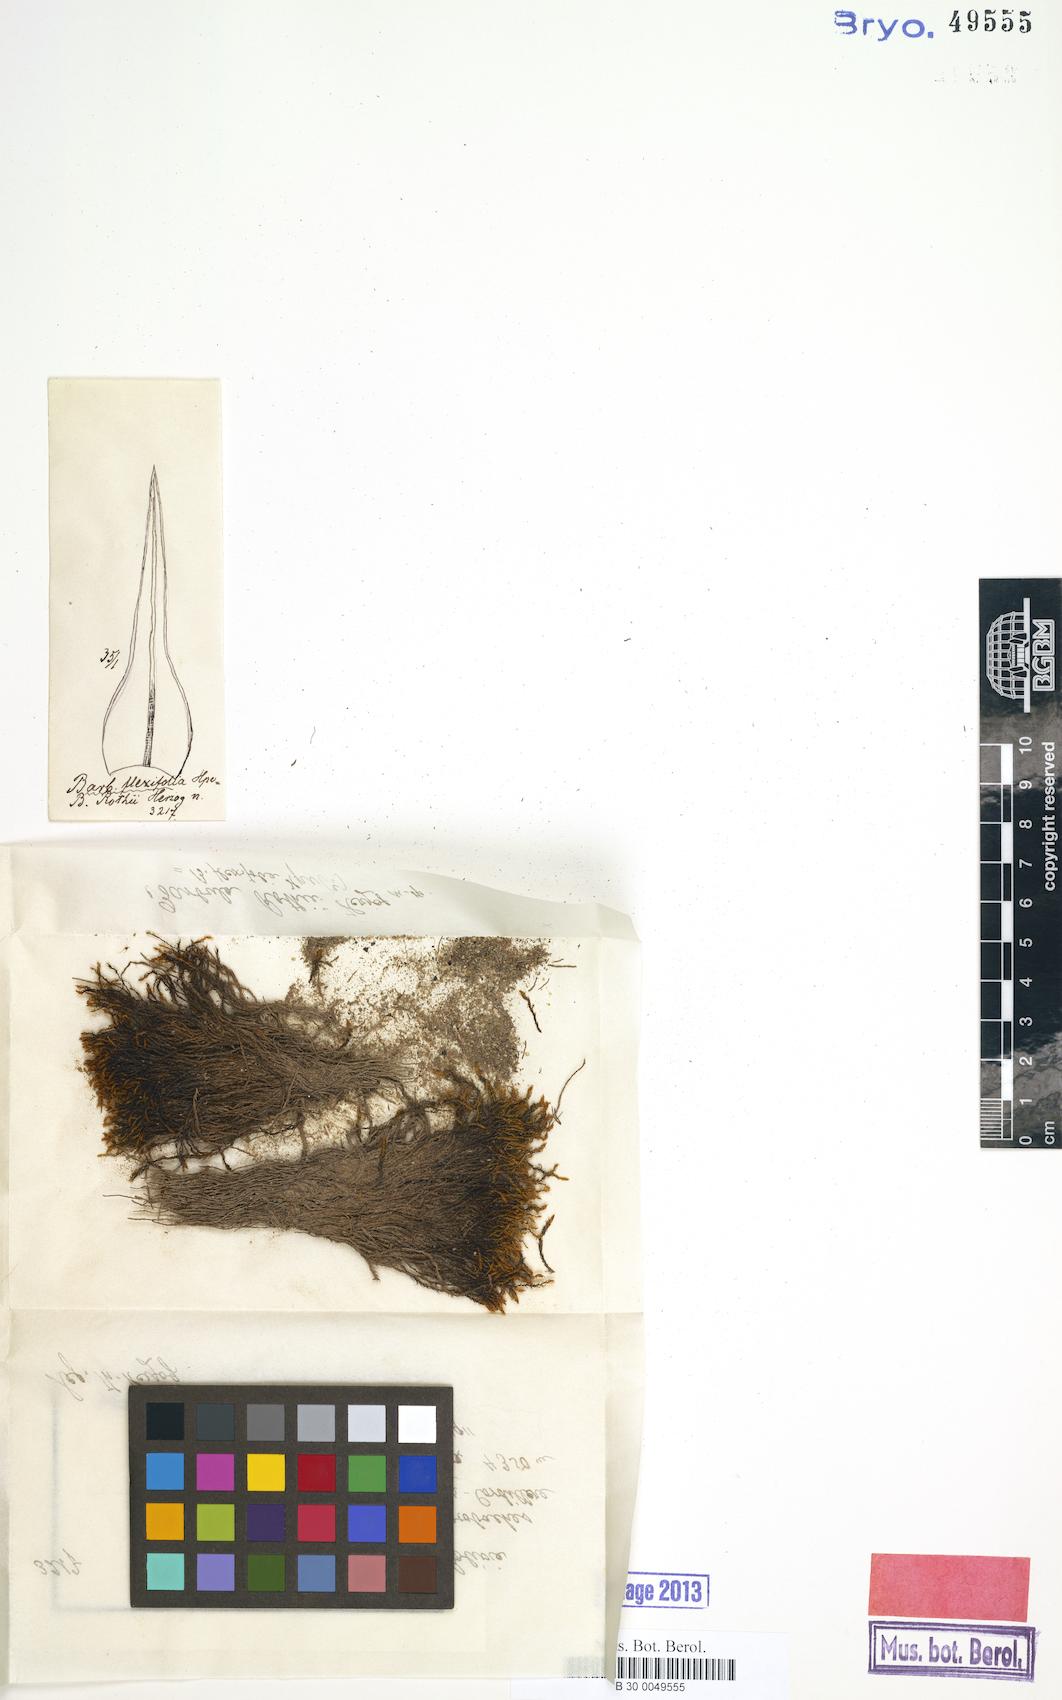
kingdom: Plantae
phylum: Bryophyta
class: Bryopsida
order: Pottiales
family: Pottiaceae
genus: Vinealobryum
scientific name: Vinealobryum vineale
